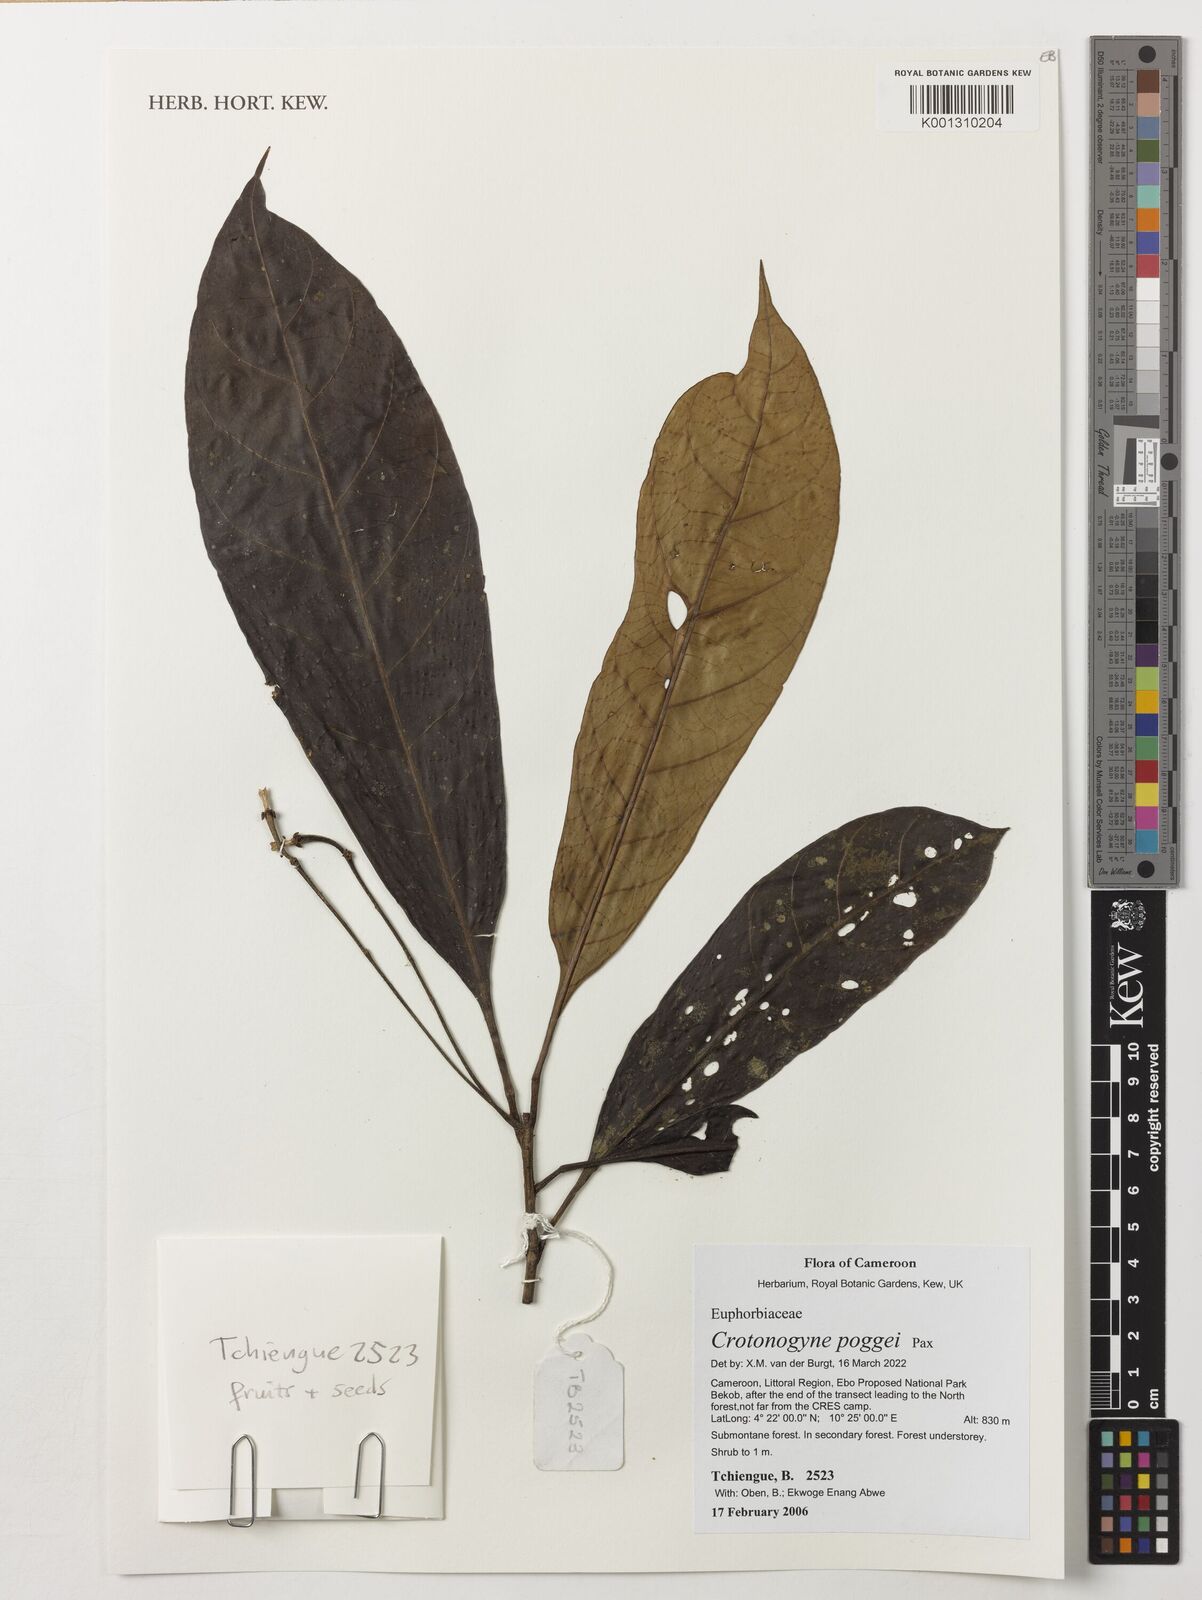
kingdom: Plantae
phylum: Tracheophyta
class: Magnoliopsida
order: Malpighiales
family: Euphorbiaceae
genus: Crotonogyne
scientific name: Crotonogyne poggei
